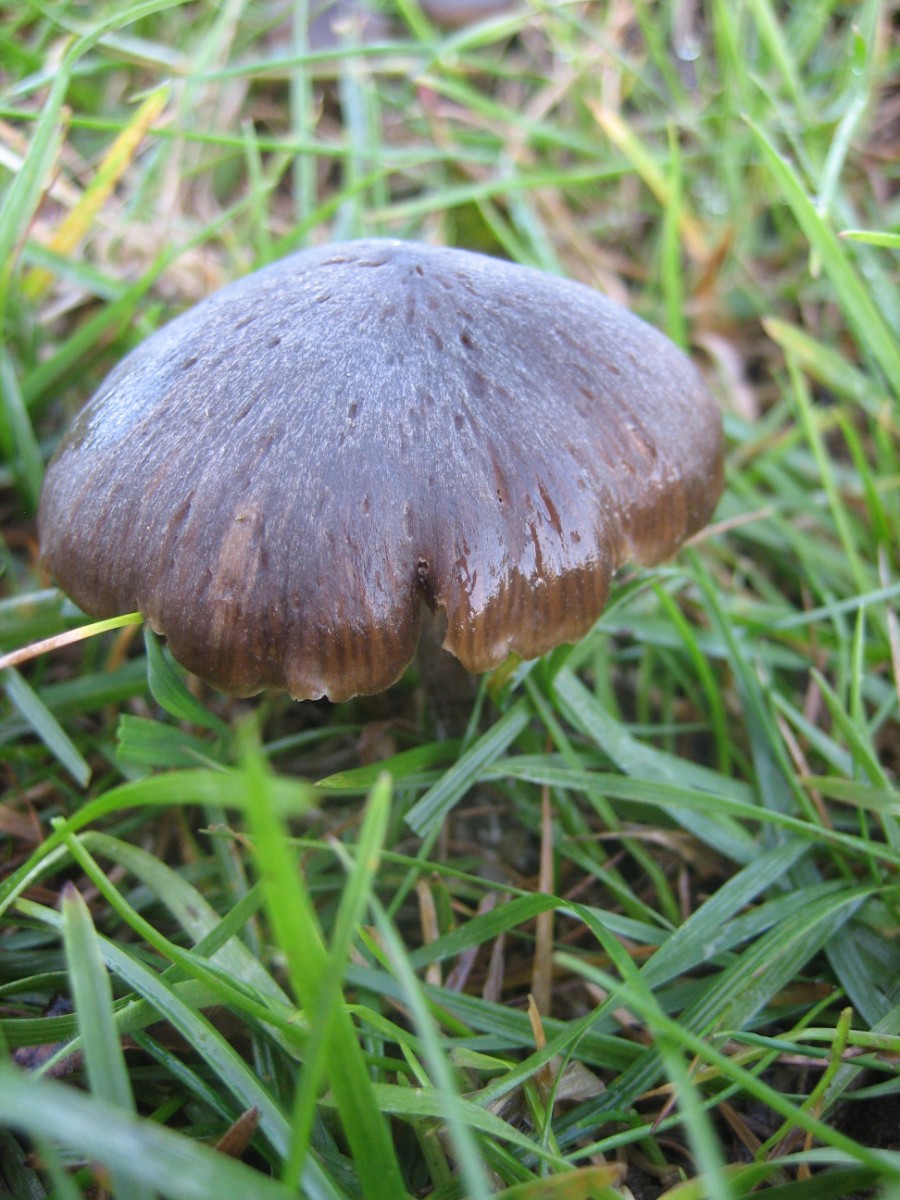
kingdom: Fungi
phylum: Basidiomycota
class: Agaricomycetes
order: Agaricales
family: Entolomataceae
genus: Entoloma
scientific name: Entoloma
